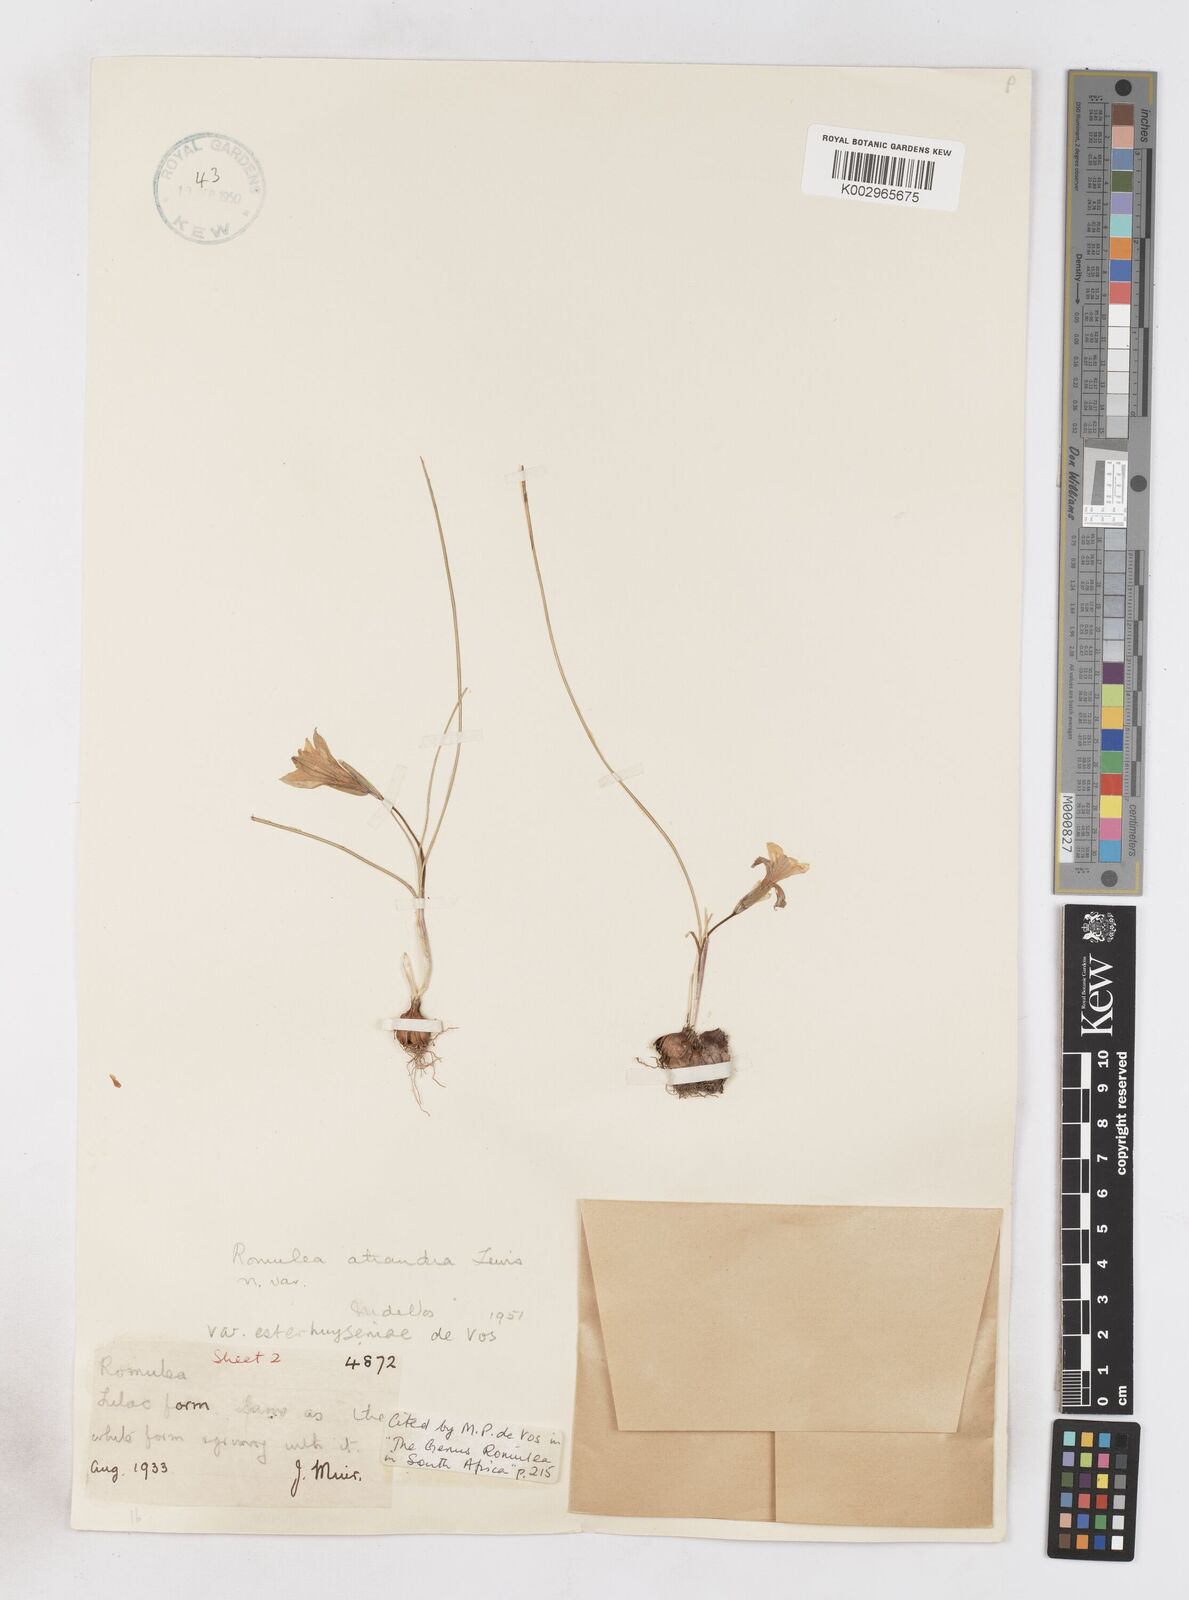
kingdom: Plantae
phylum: Tracheophyta
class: Liliopsida
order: Asparagales
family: Iridaceae
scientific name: Iridaceae
